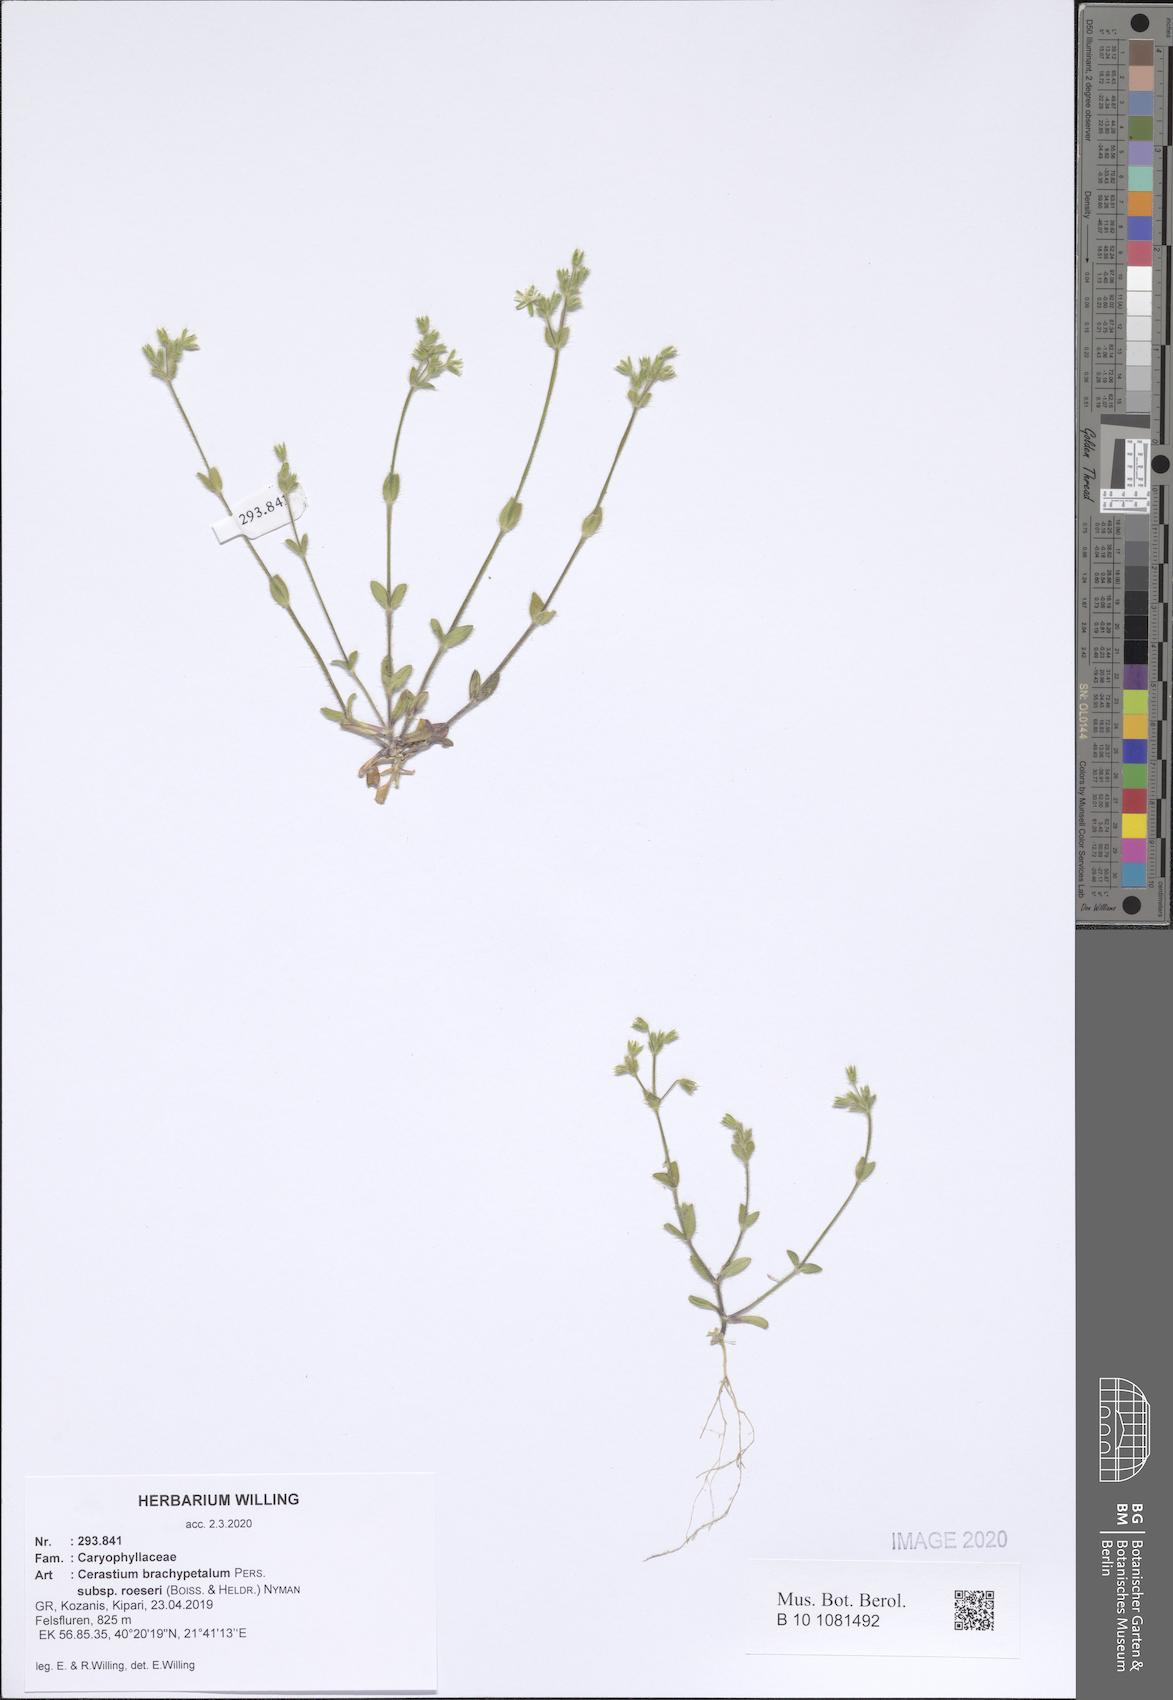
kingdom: Plantae
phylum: Tracheophyta
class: Magnoliopsida
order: Caryophyllales
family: Caryophyllaceae
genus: Cerastium
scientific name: Cerastium brachypetalum
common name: Grey mouse-ear
